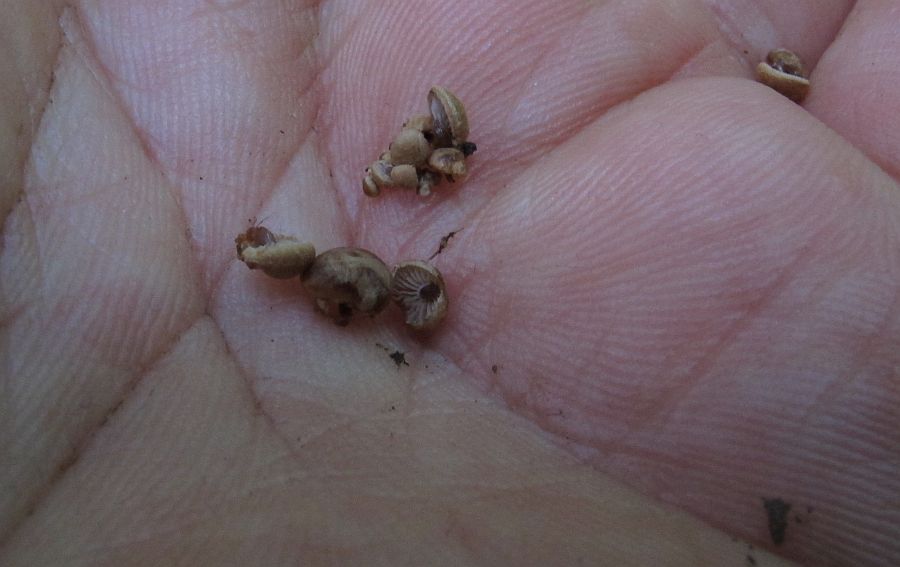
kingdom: Fungi
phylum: Basidiomycota
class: Agaricomycetes
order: Agaricales
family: Strophariaceae
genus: Deconica
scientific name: Deconica horizontalis
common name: ved-stråhat
